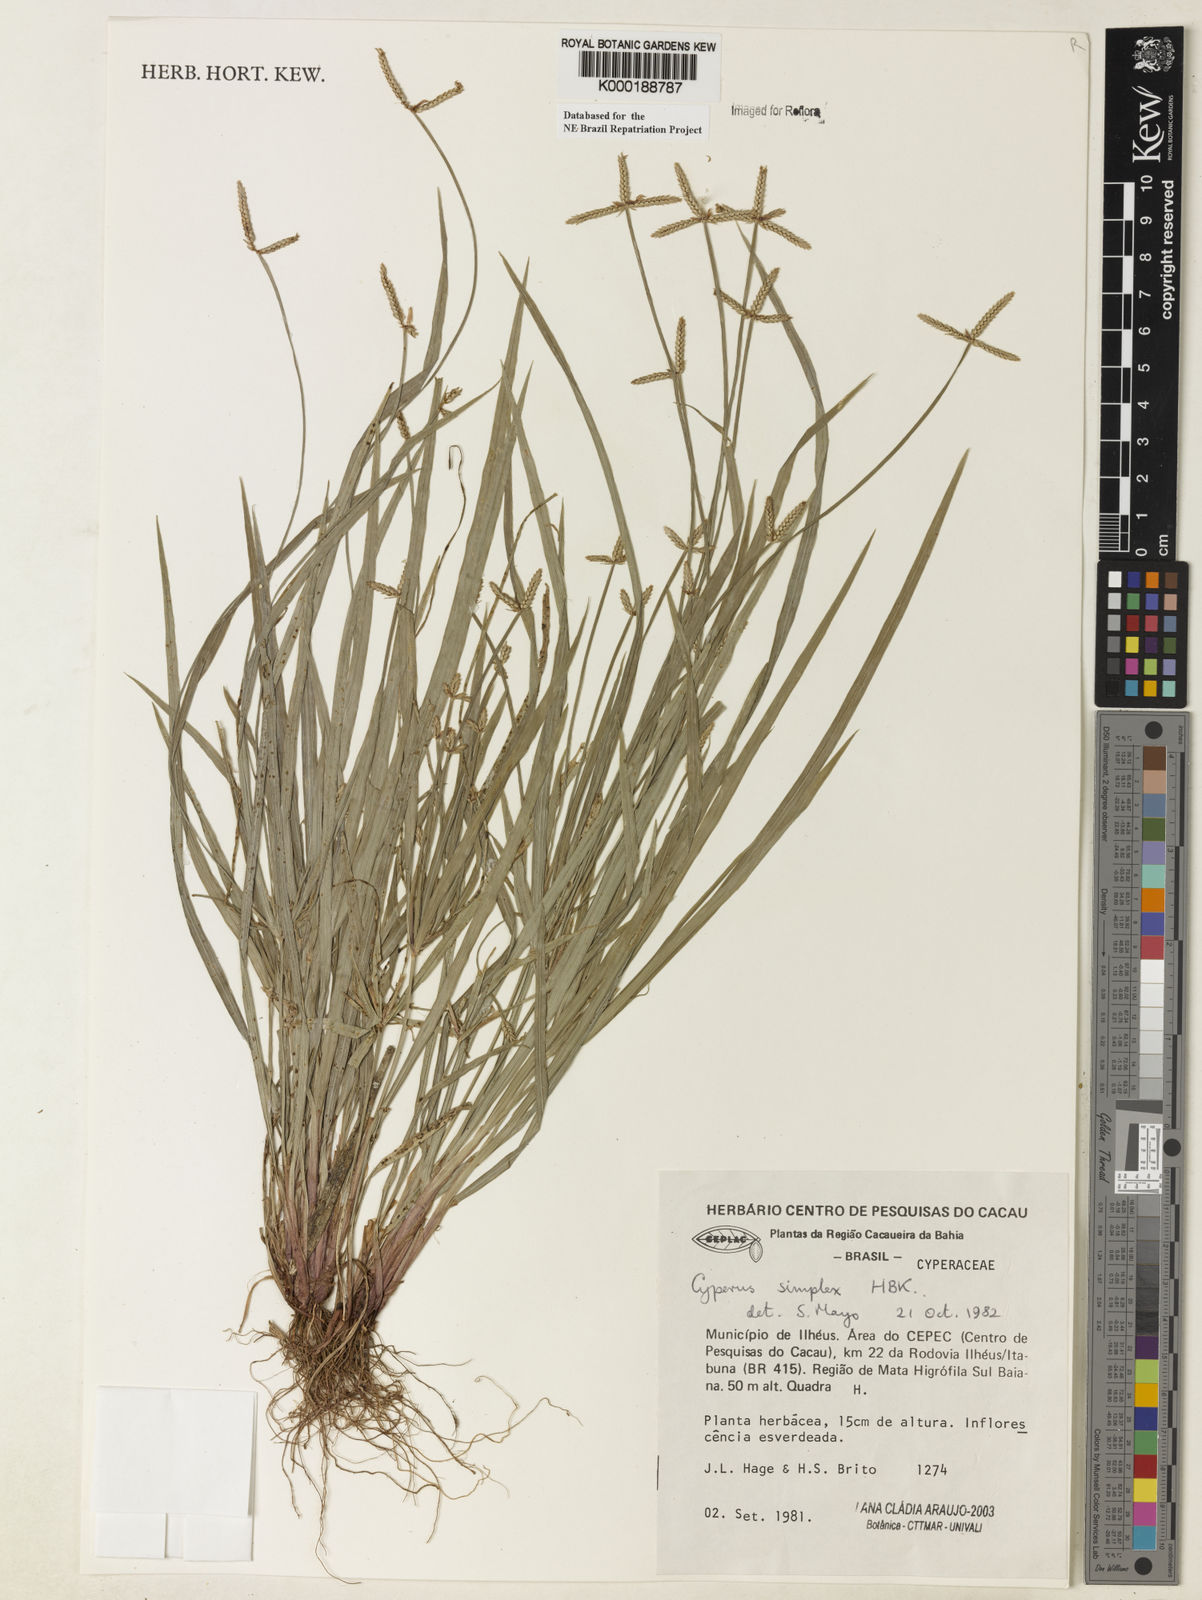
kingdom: Plantae
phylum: Tracheophyta
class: Liliopsida
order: Poales
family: Cyperaceae
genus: Cyperus
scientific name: Cyperus simplex
